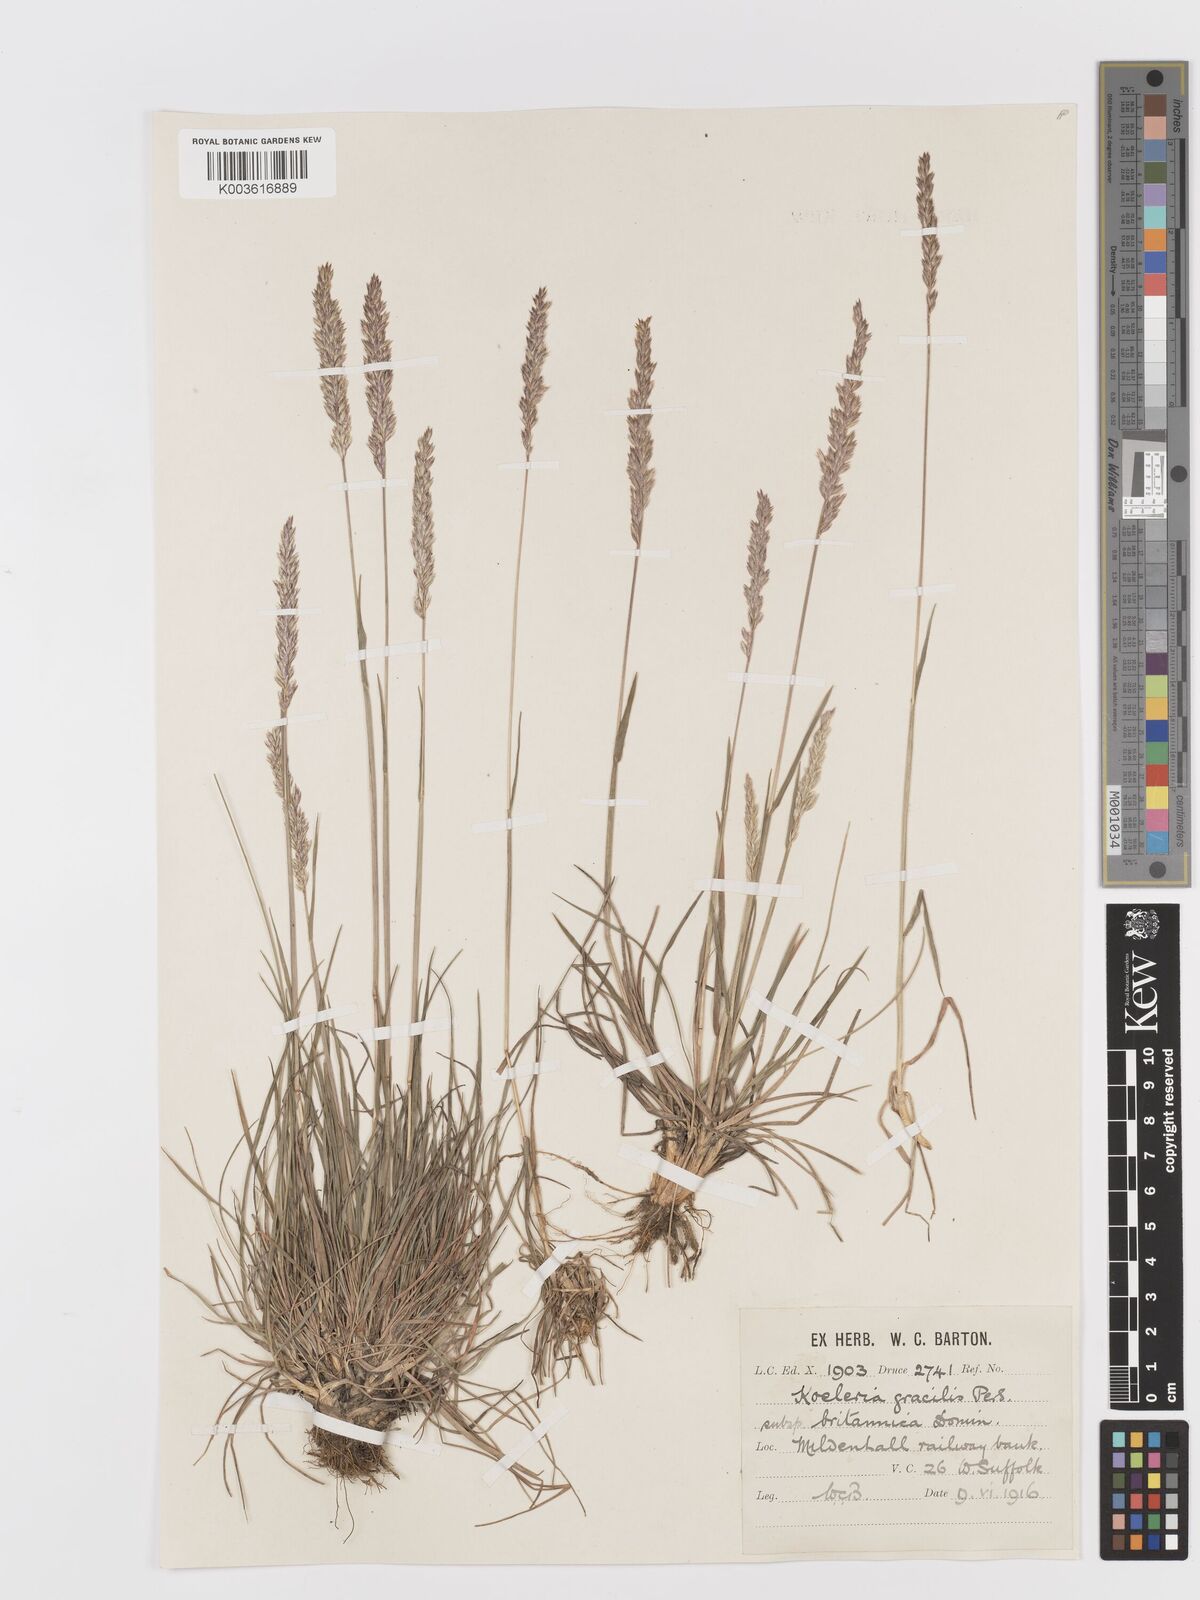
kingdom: Plantae
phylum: Tracheophyta
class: Liliopsida
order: Poales
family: Poaceae
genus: Koeleria
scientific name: Koeleria macrantha
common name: Crested hair-grass
